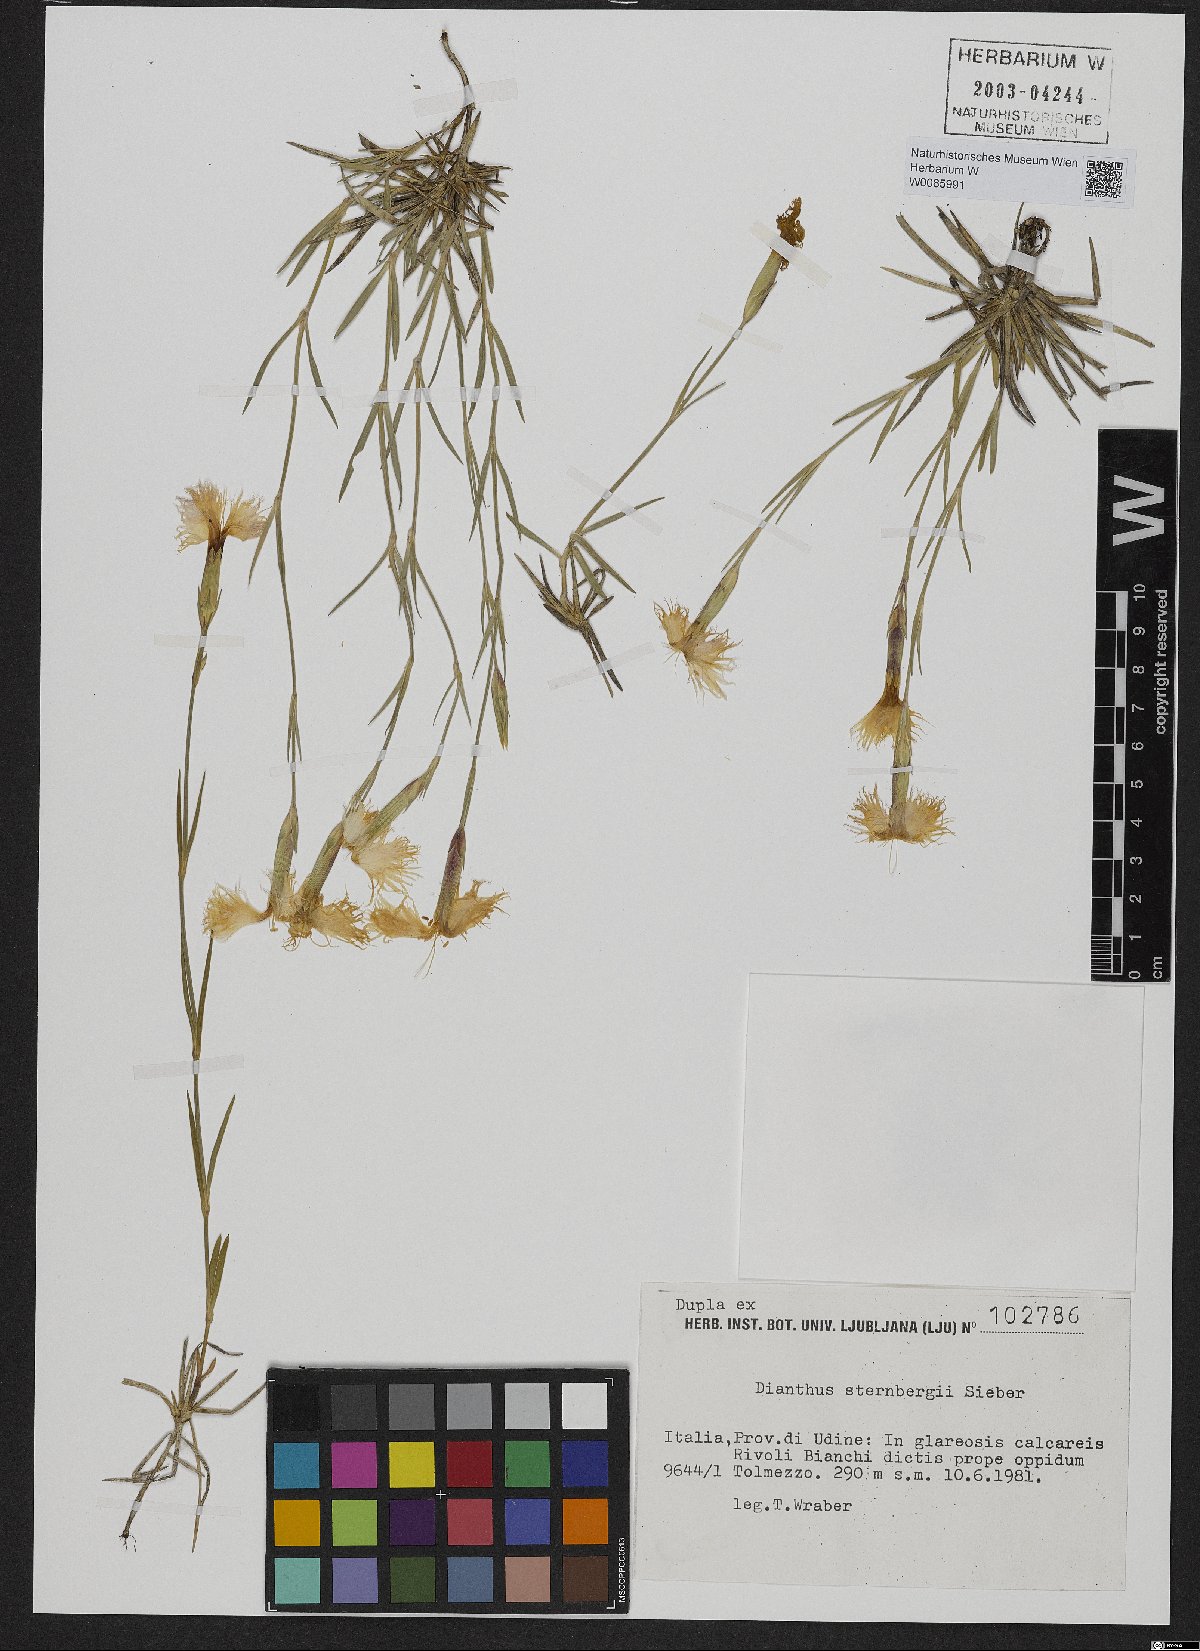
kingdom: Plantae
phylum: Tracheophyta
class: Magnoliopsida
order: Caryophyllales
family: Caryophyllaceae
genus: Dianthus
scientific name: Dianthus sternbergii
